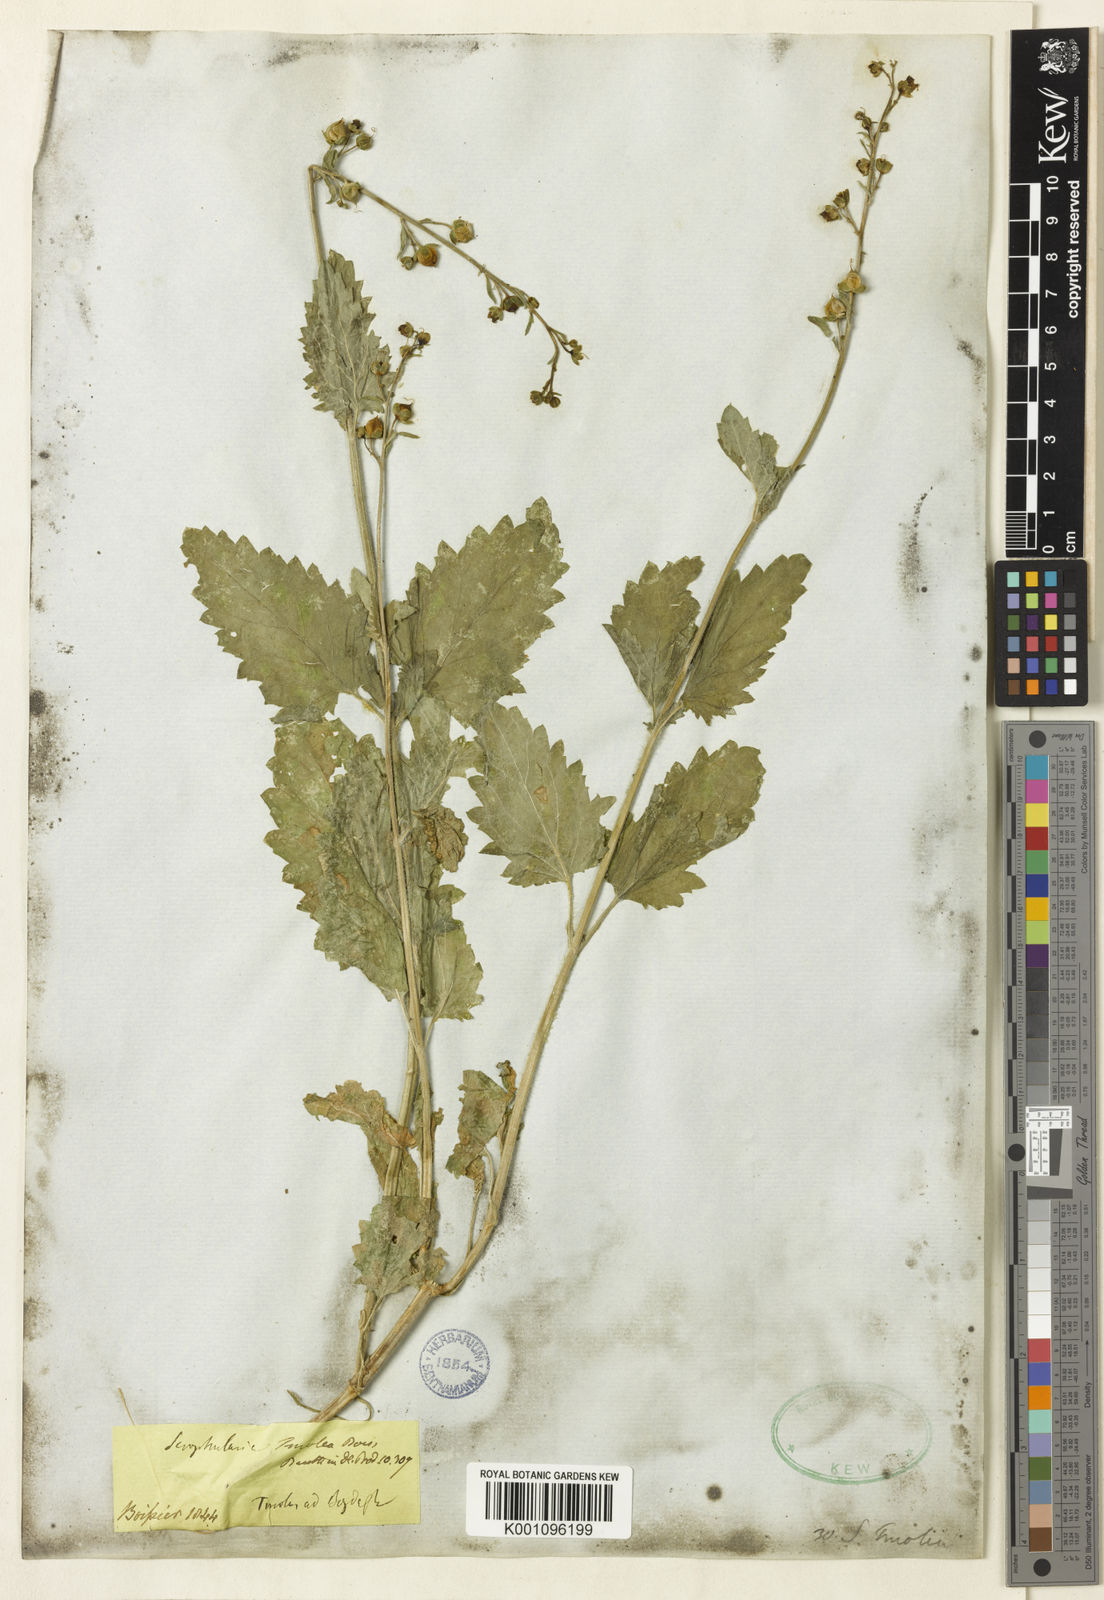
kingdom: Plantae
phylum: Tracheophyta
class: Magnoliopsida
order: Lamiales
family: Scrophulariaceae
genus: Scrophularia
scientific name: Scrophularia scopolii
